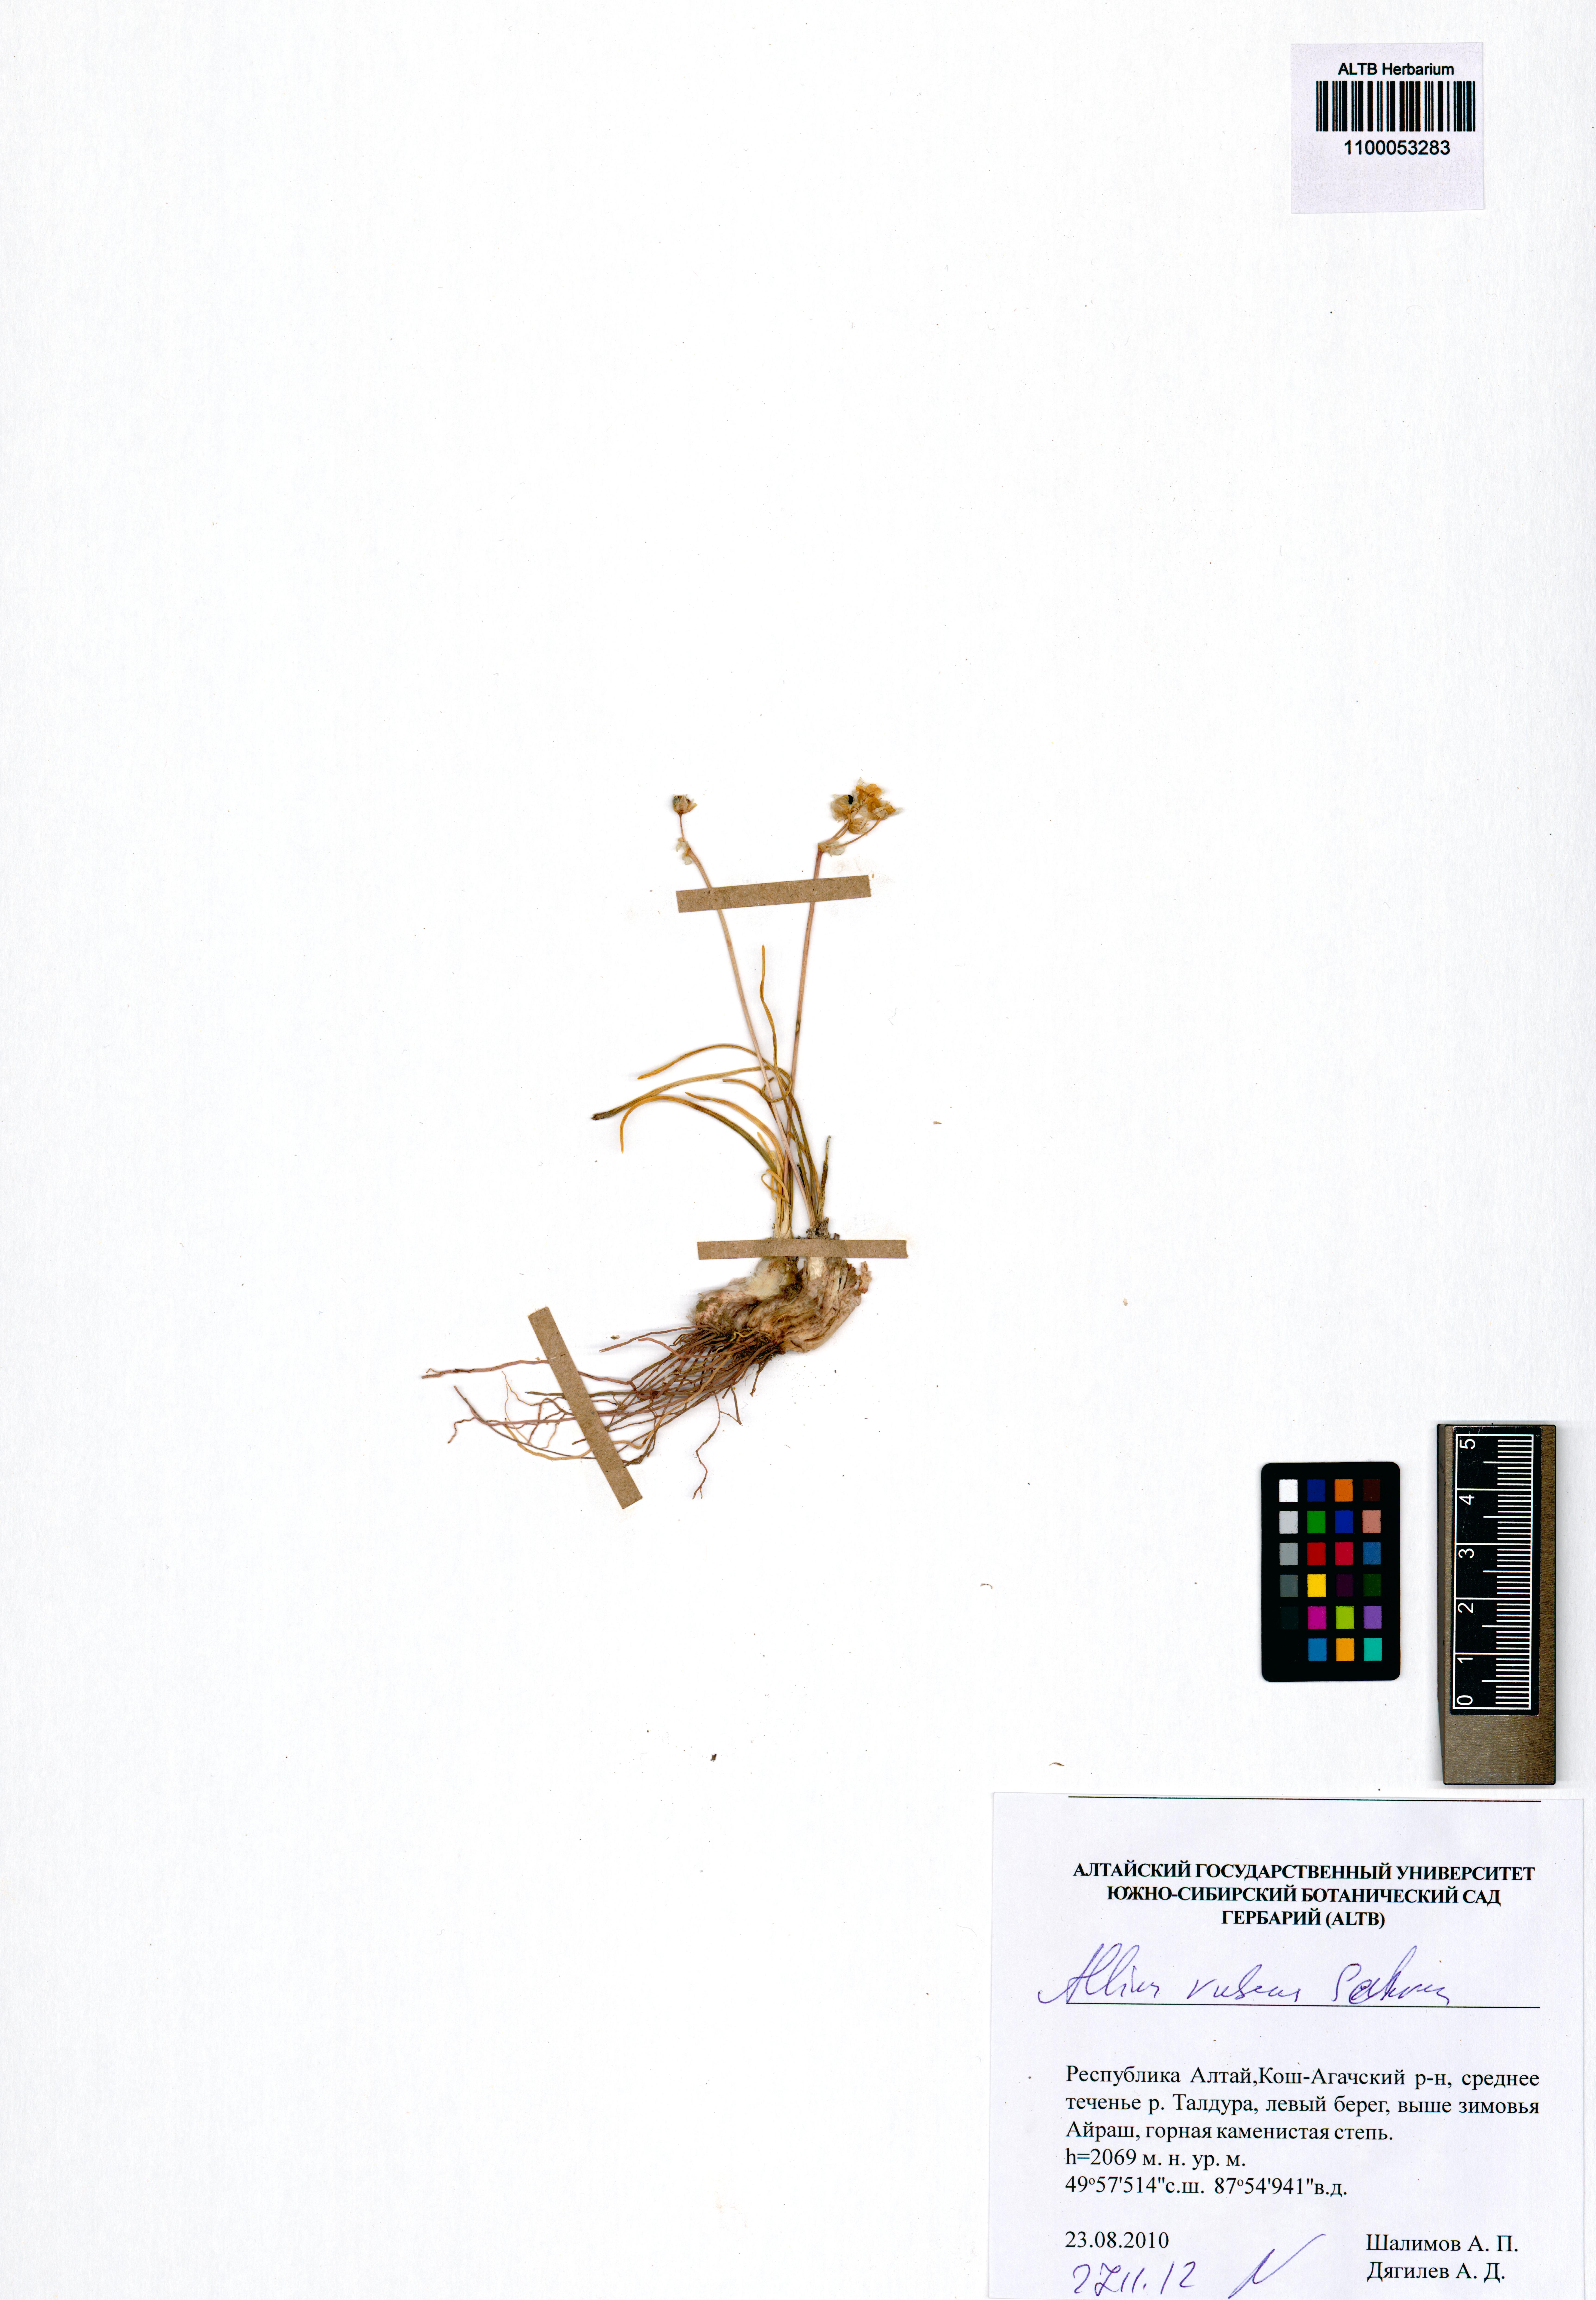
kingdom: Plantae
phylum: Tracheophyta
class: Liliopsida
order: Asparagales
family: Amaryllidaceae
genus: Allium
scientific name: Allium rubens
